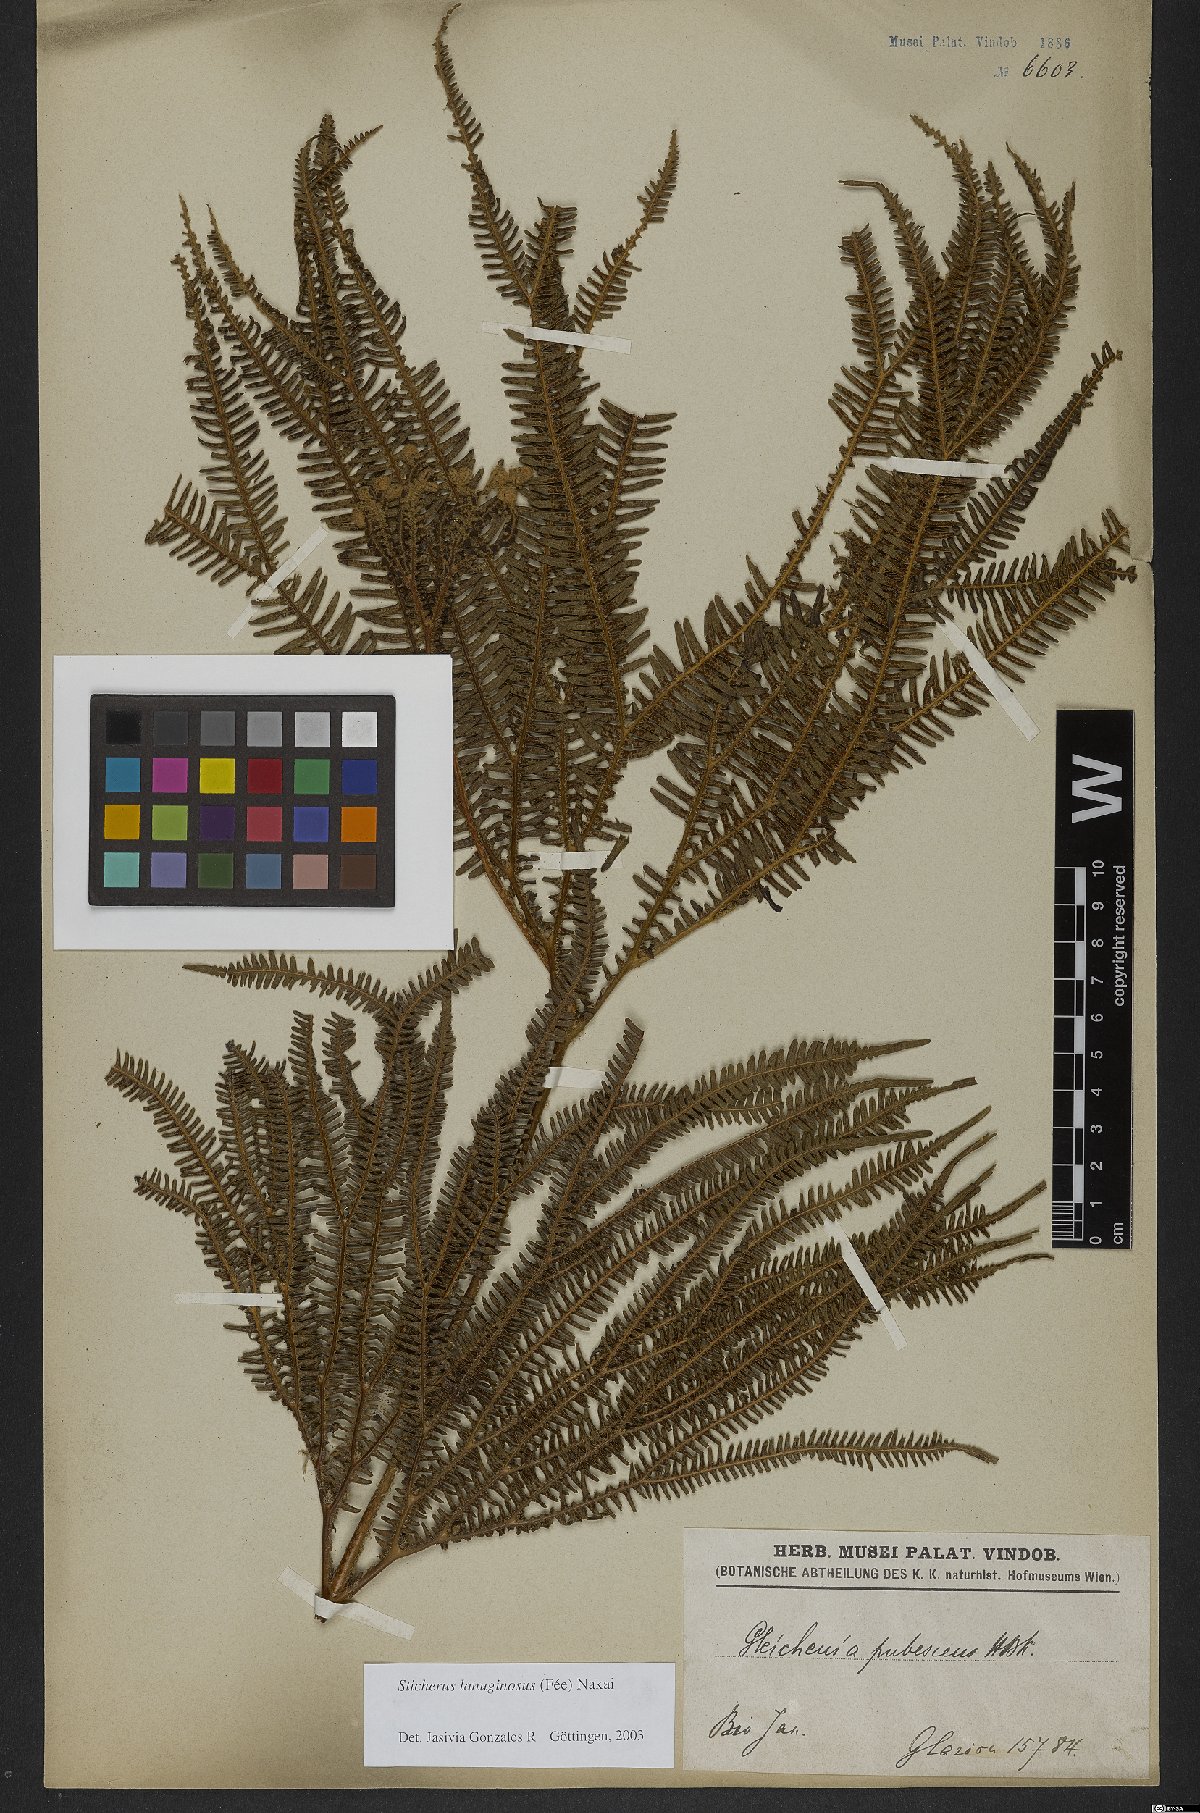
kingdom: Plantae
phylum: Tracheophyta
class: Polypodiopsida
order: Gleicheniales
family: Gleicheniaceae
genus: Sticherus
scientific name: Sticherus lanuginosus
